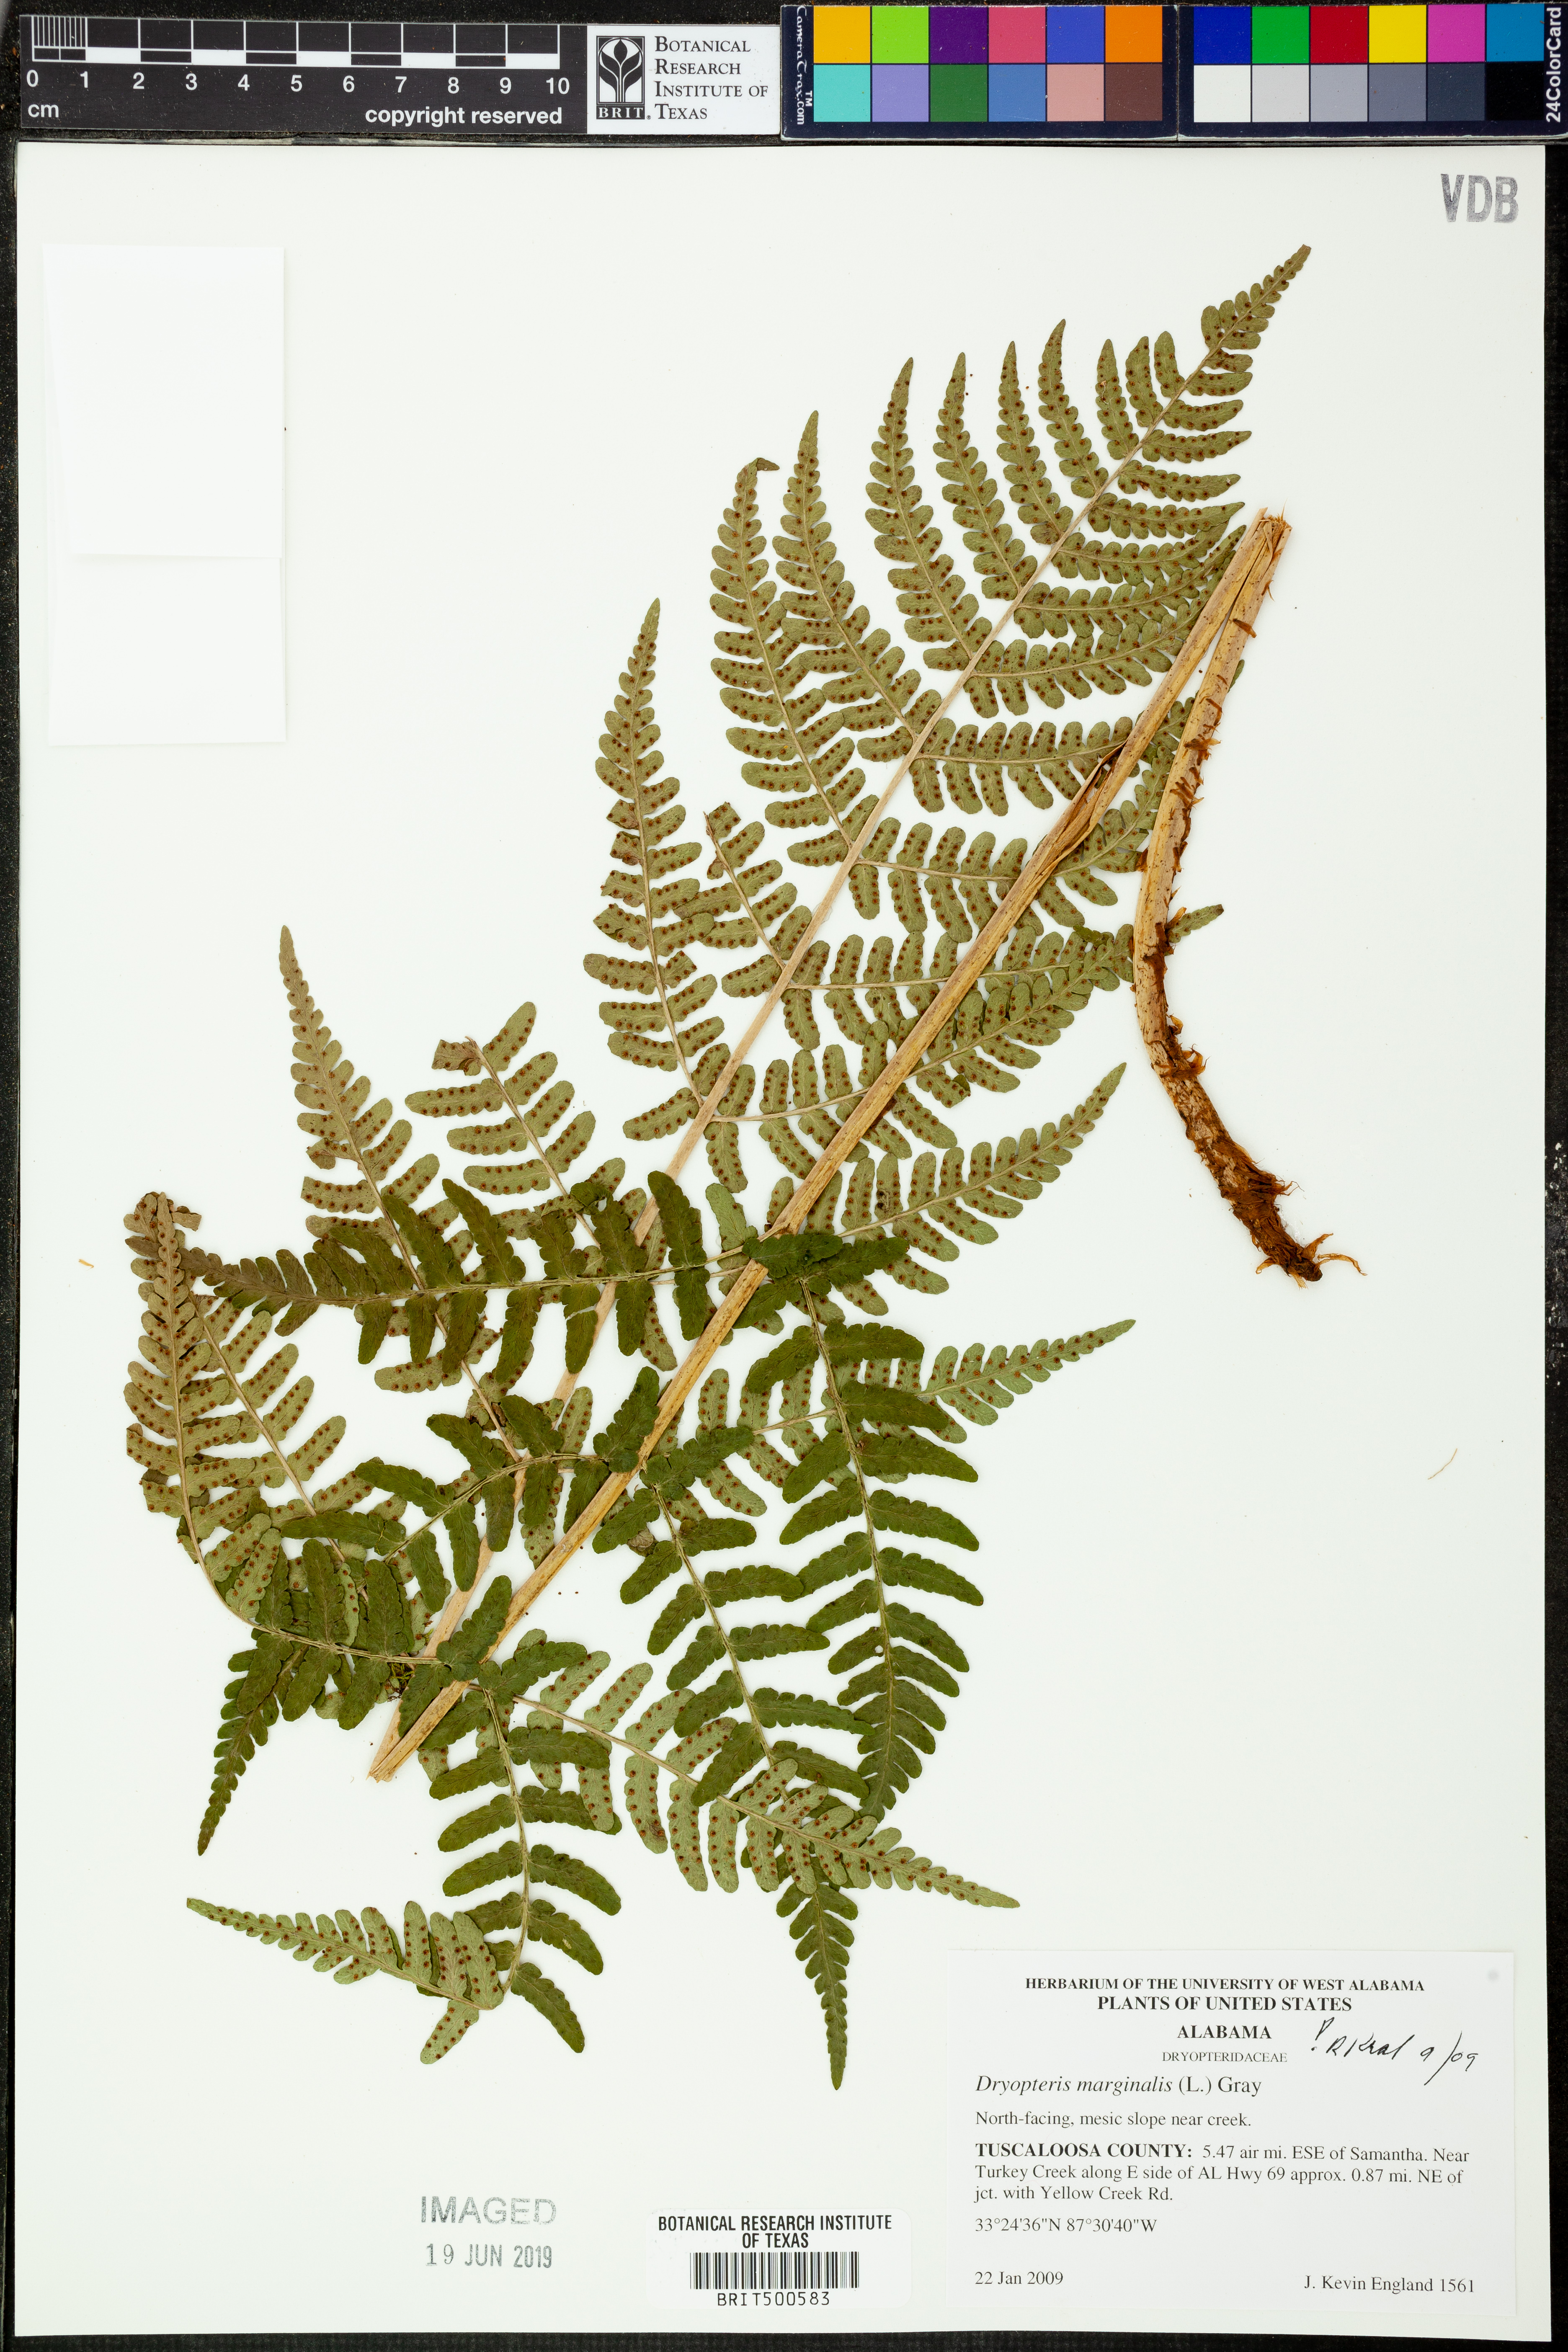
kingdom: Plantae
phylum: Tracheophyta
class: Polypodiopsida
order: Polypodiales
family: Dryopteridaceae
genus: Dryopteris
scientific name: Dryopteris marginalis
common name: Marginal wood fern
